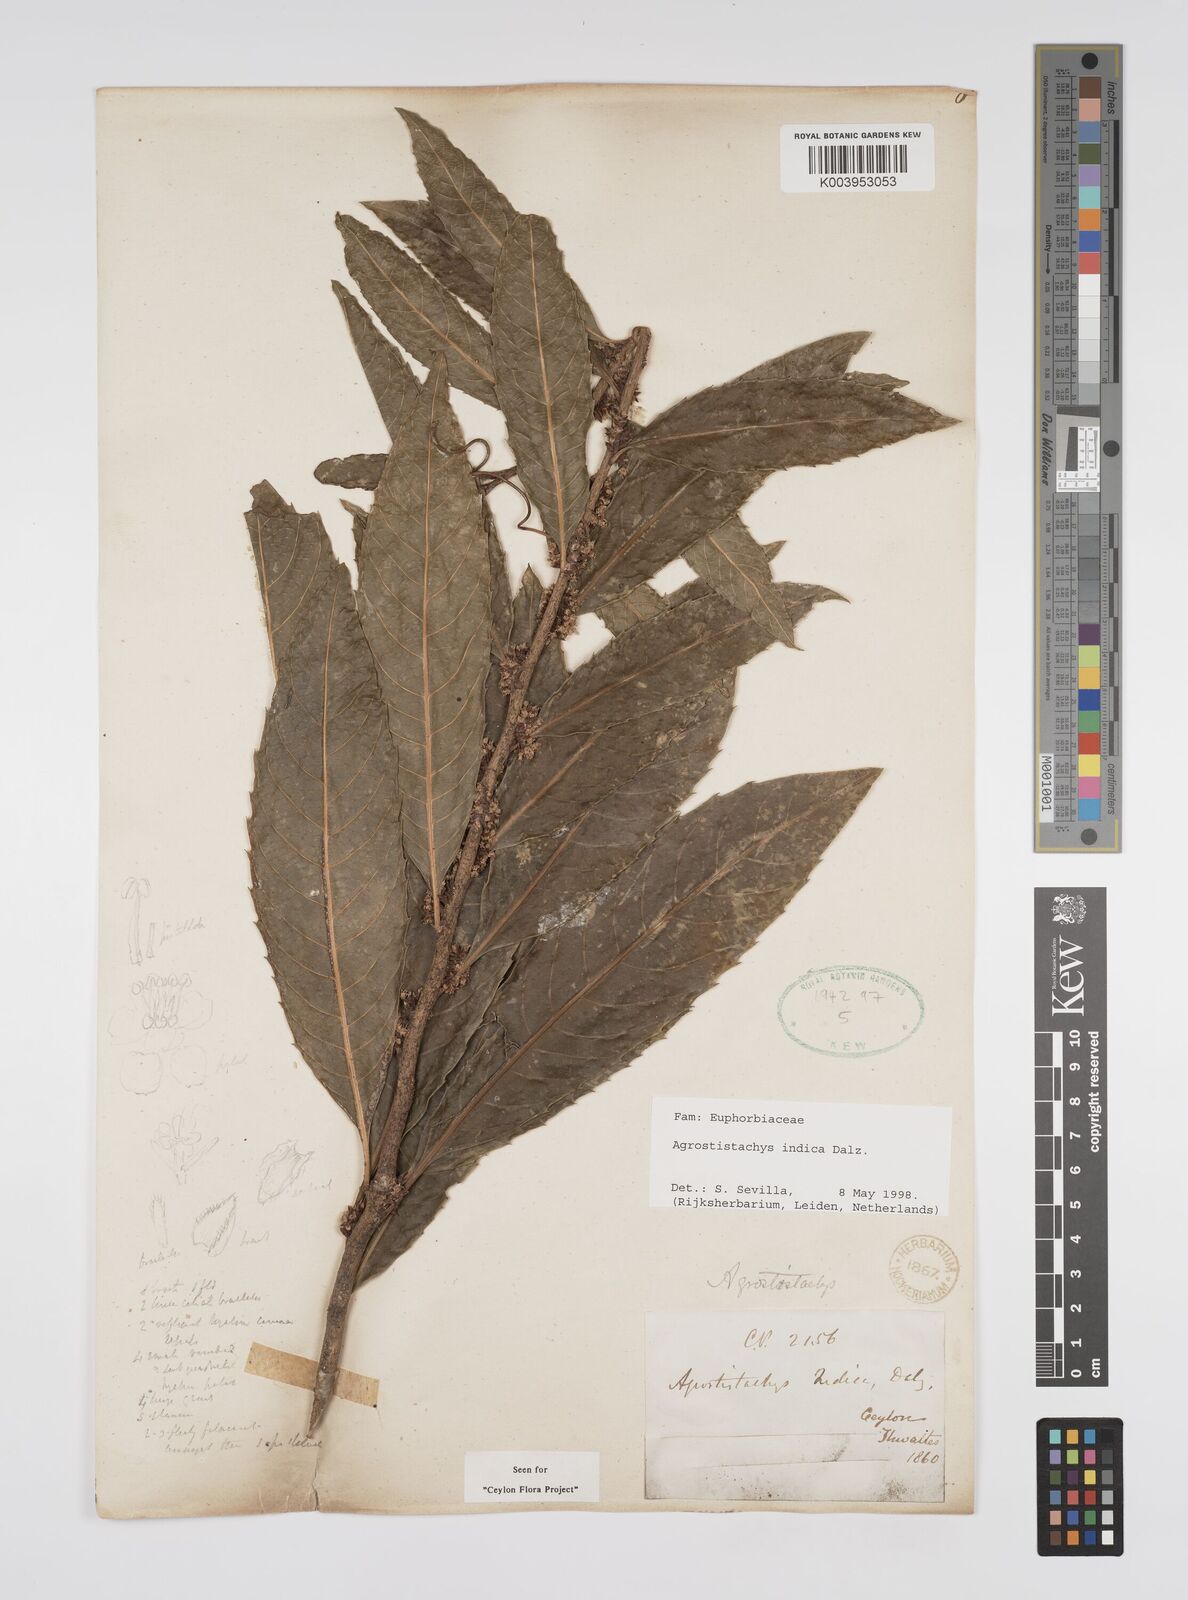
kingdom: Plantae
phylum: Tracheophyta
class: Magnoliopsida
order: Malpighiales
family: Euphorbiaceae
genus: Agrostistachys
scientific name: Agrostistachys indica
